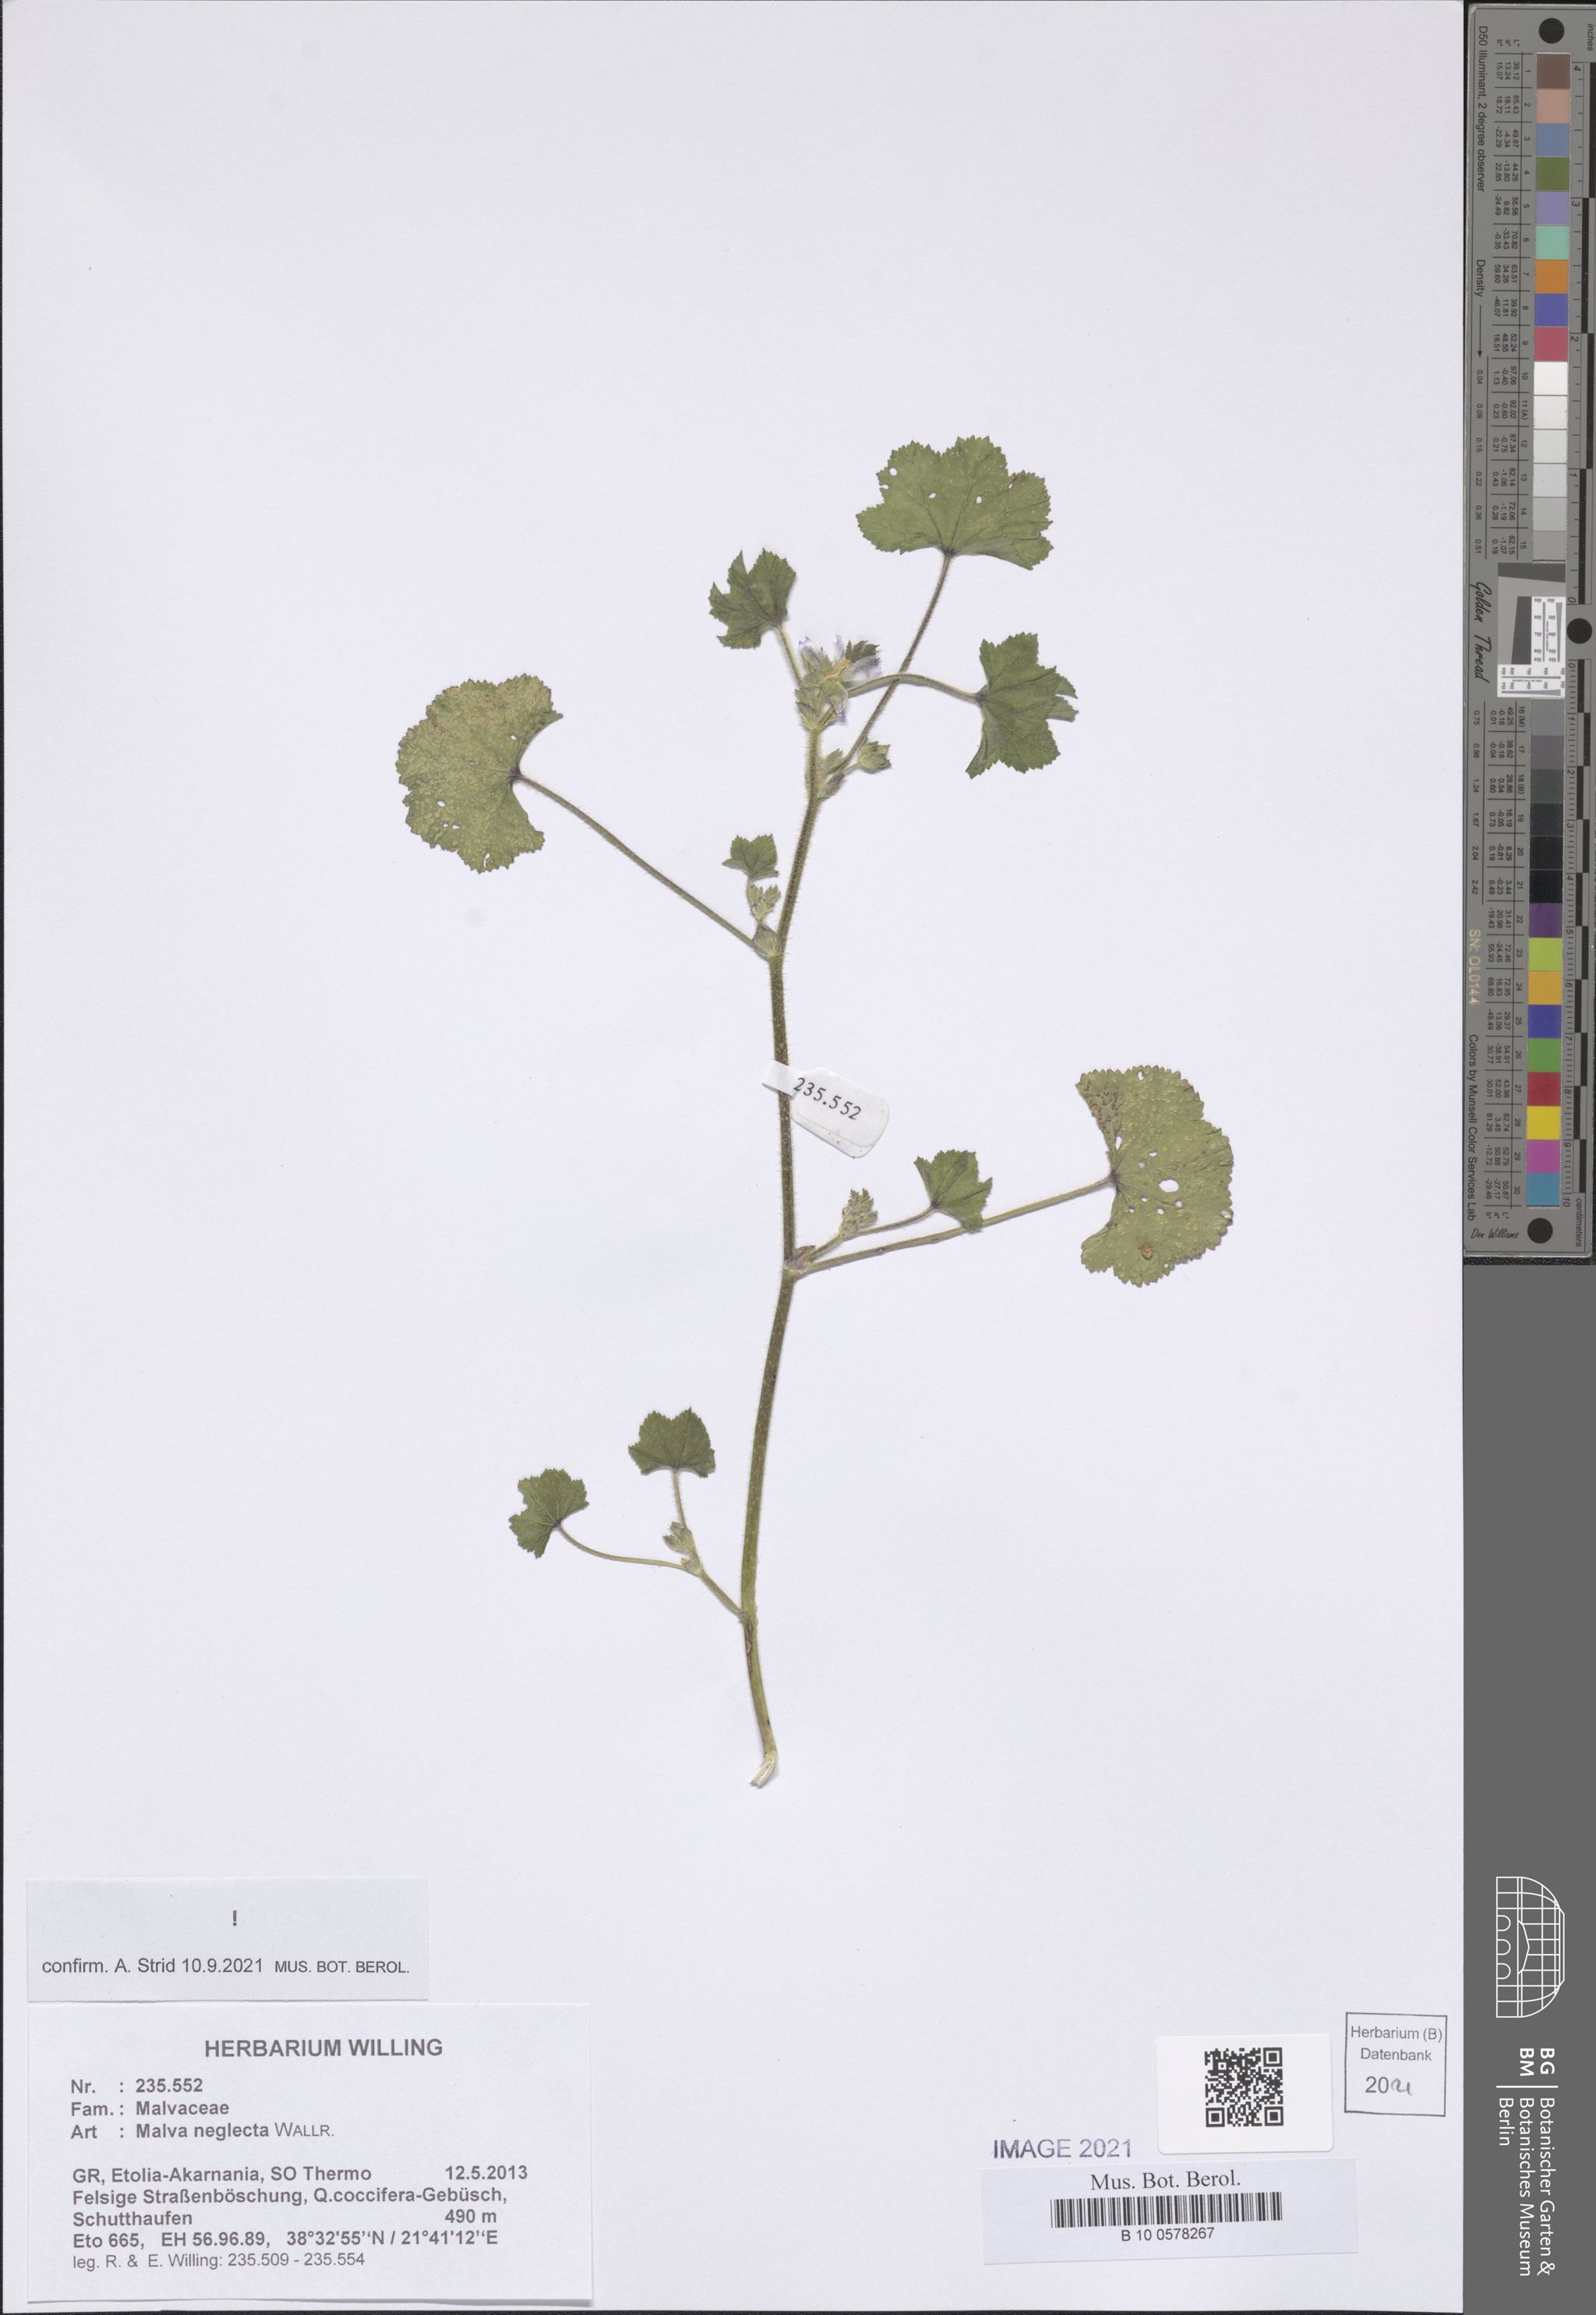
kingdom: Plantae
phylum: Tracheophyta
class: Magnoliopsida
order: Malvales
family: Malvaceae
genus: Malva
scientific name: Malva neglecta
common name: Common mallow
